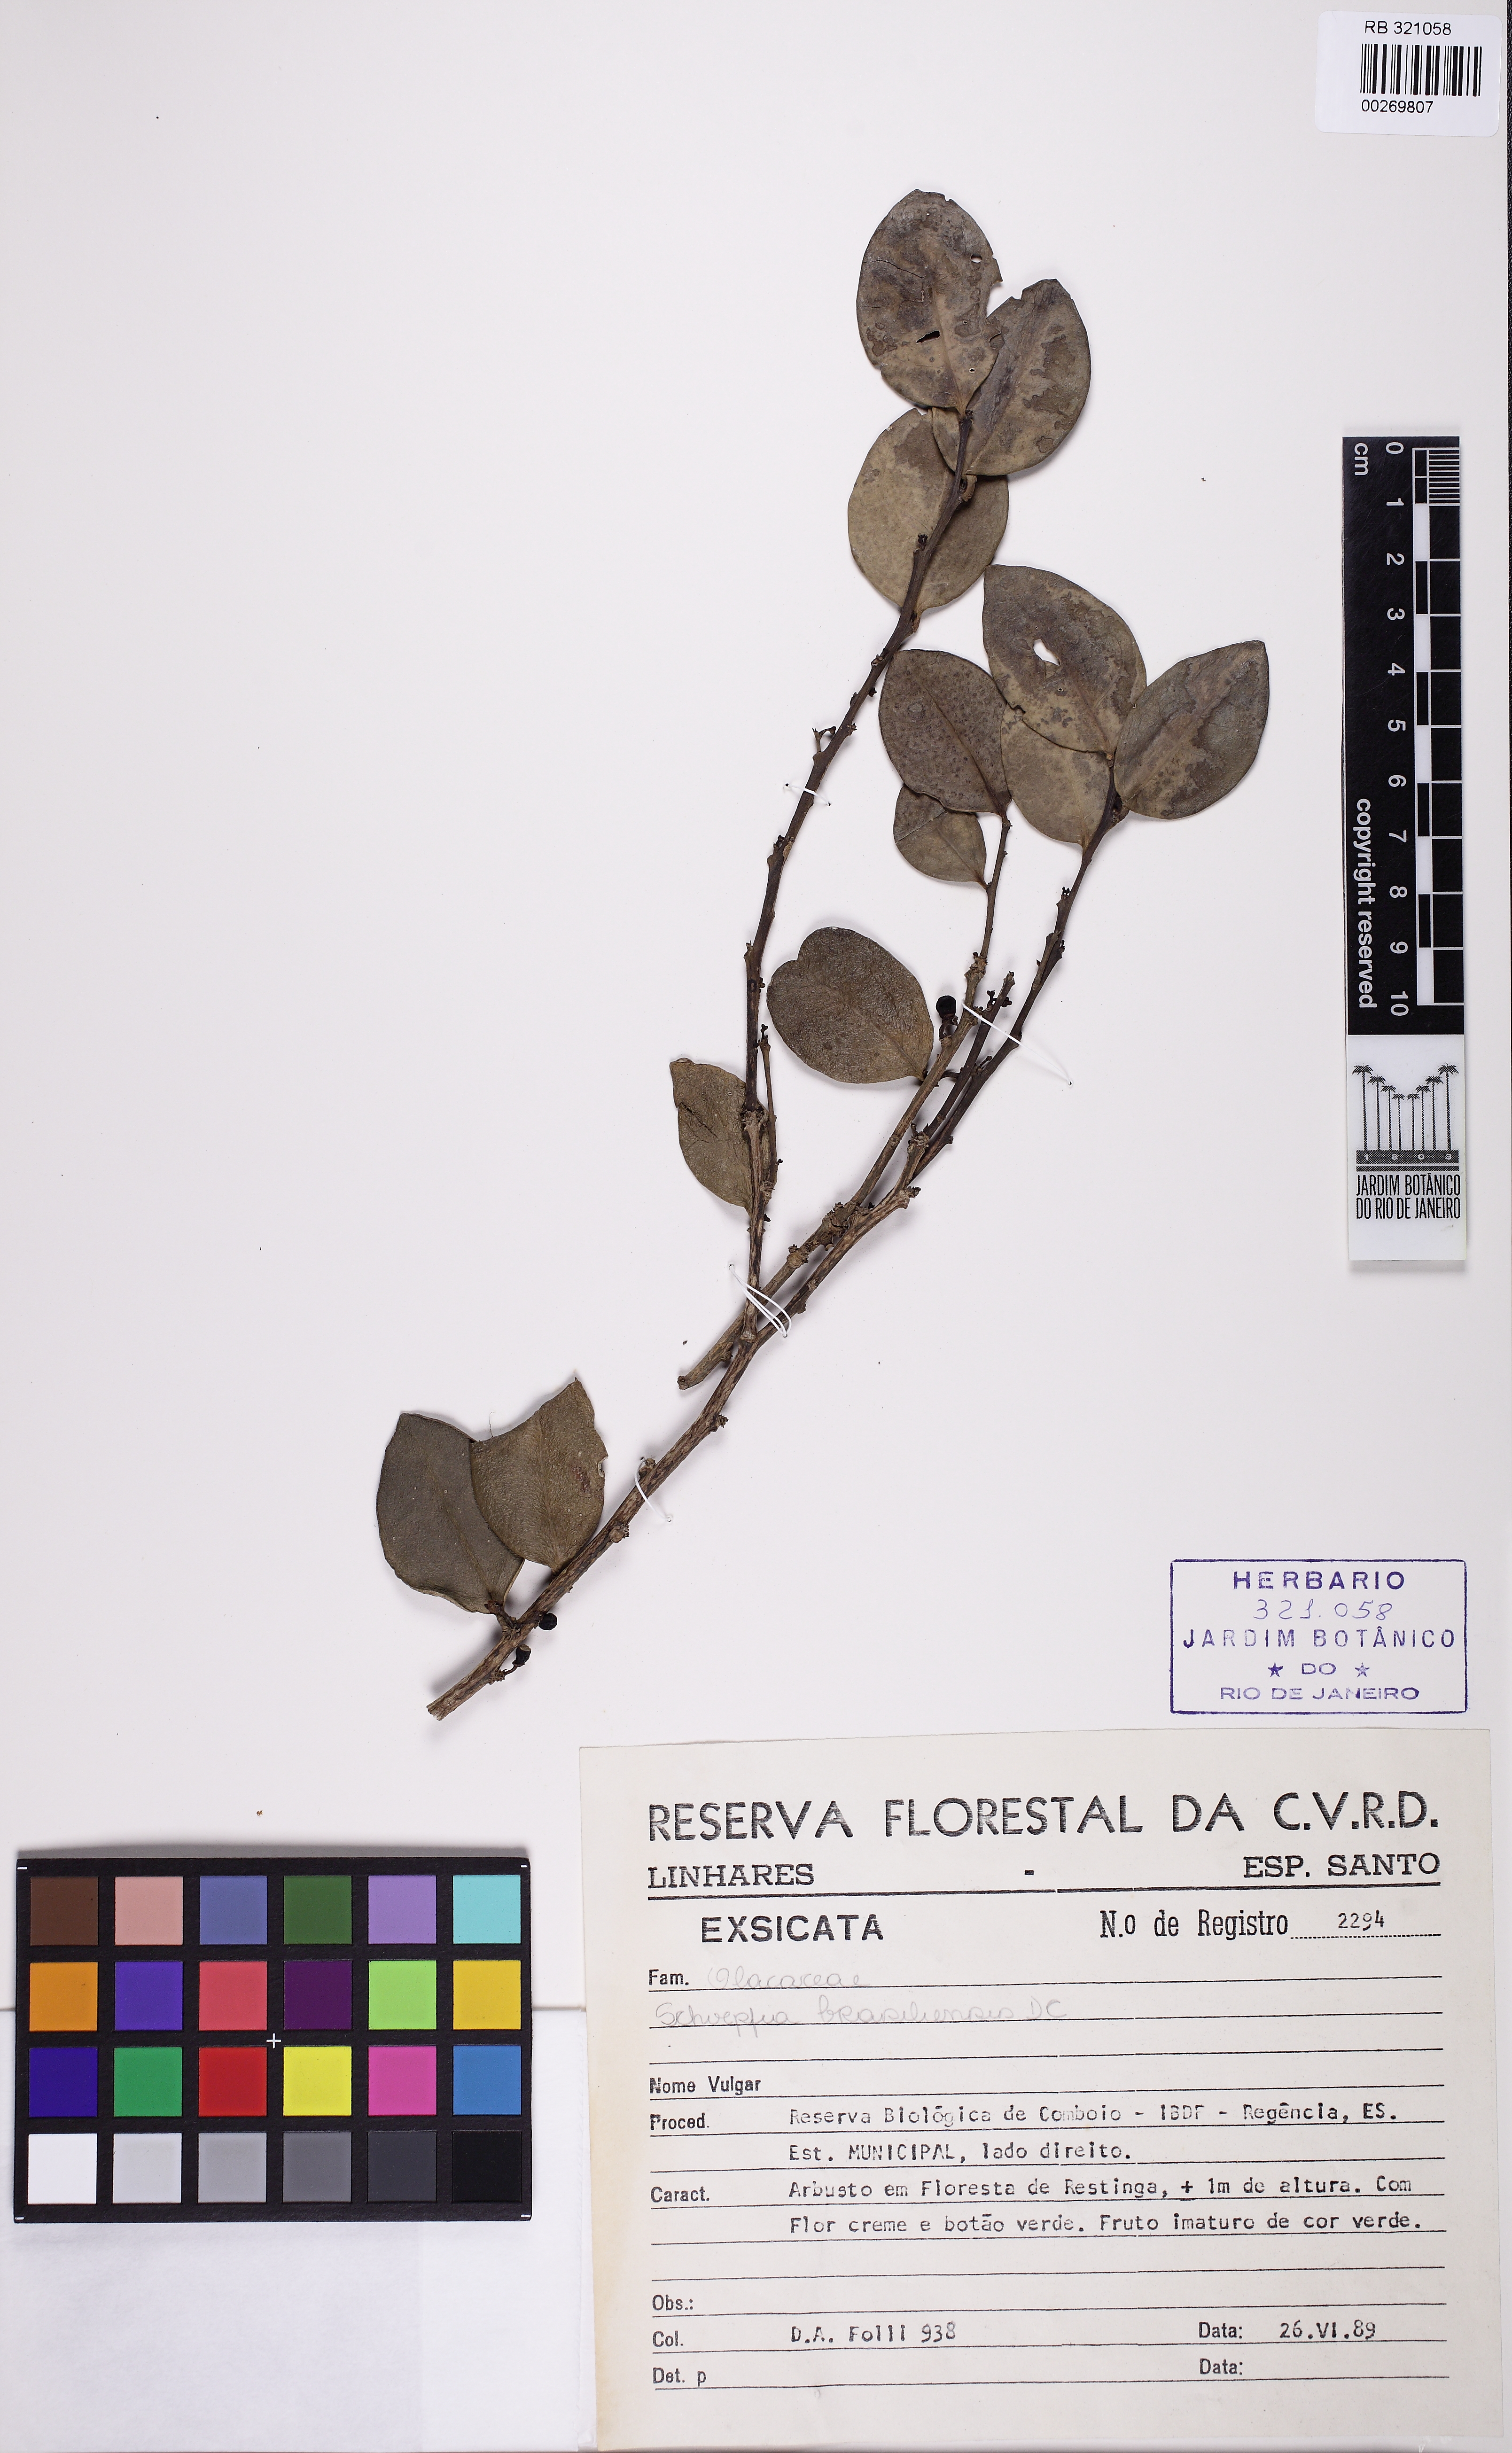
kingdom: Plantae
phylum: Tracheophyta
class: Magnoliopsida
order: Santalales
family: Schoepfiaceae
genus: Schoepfia
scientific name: Schoepfia brasiliensis
